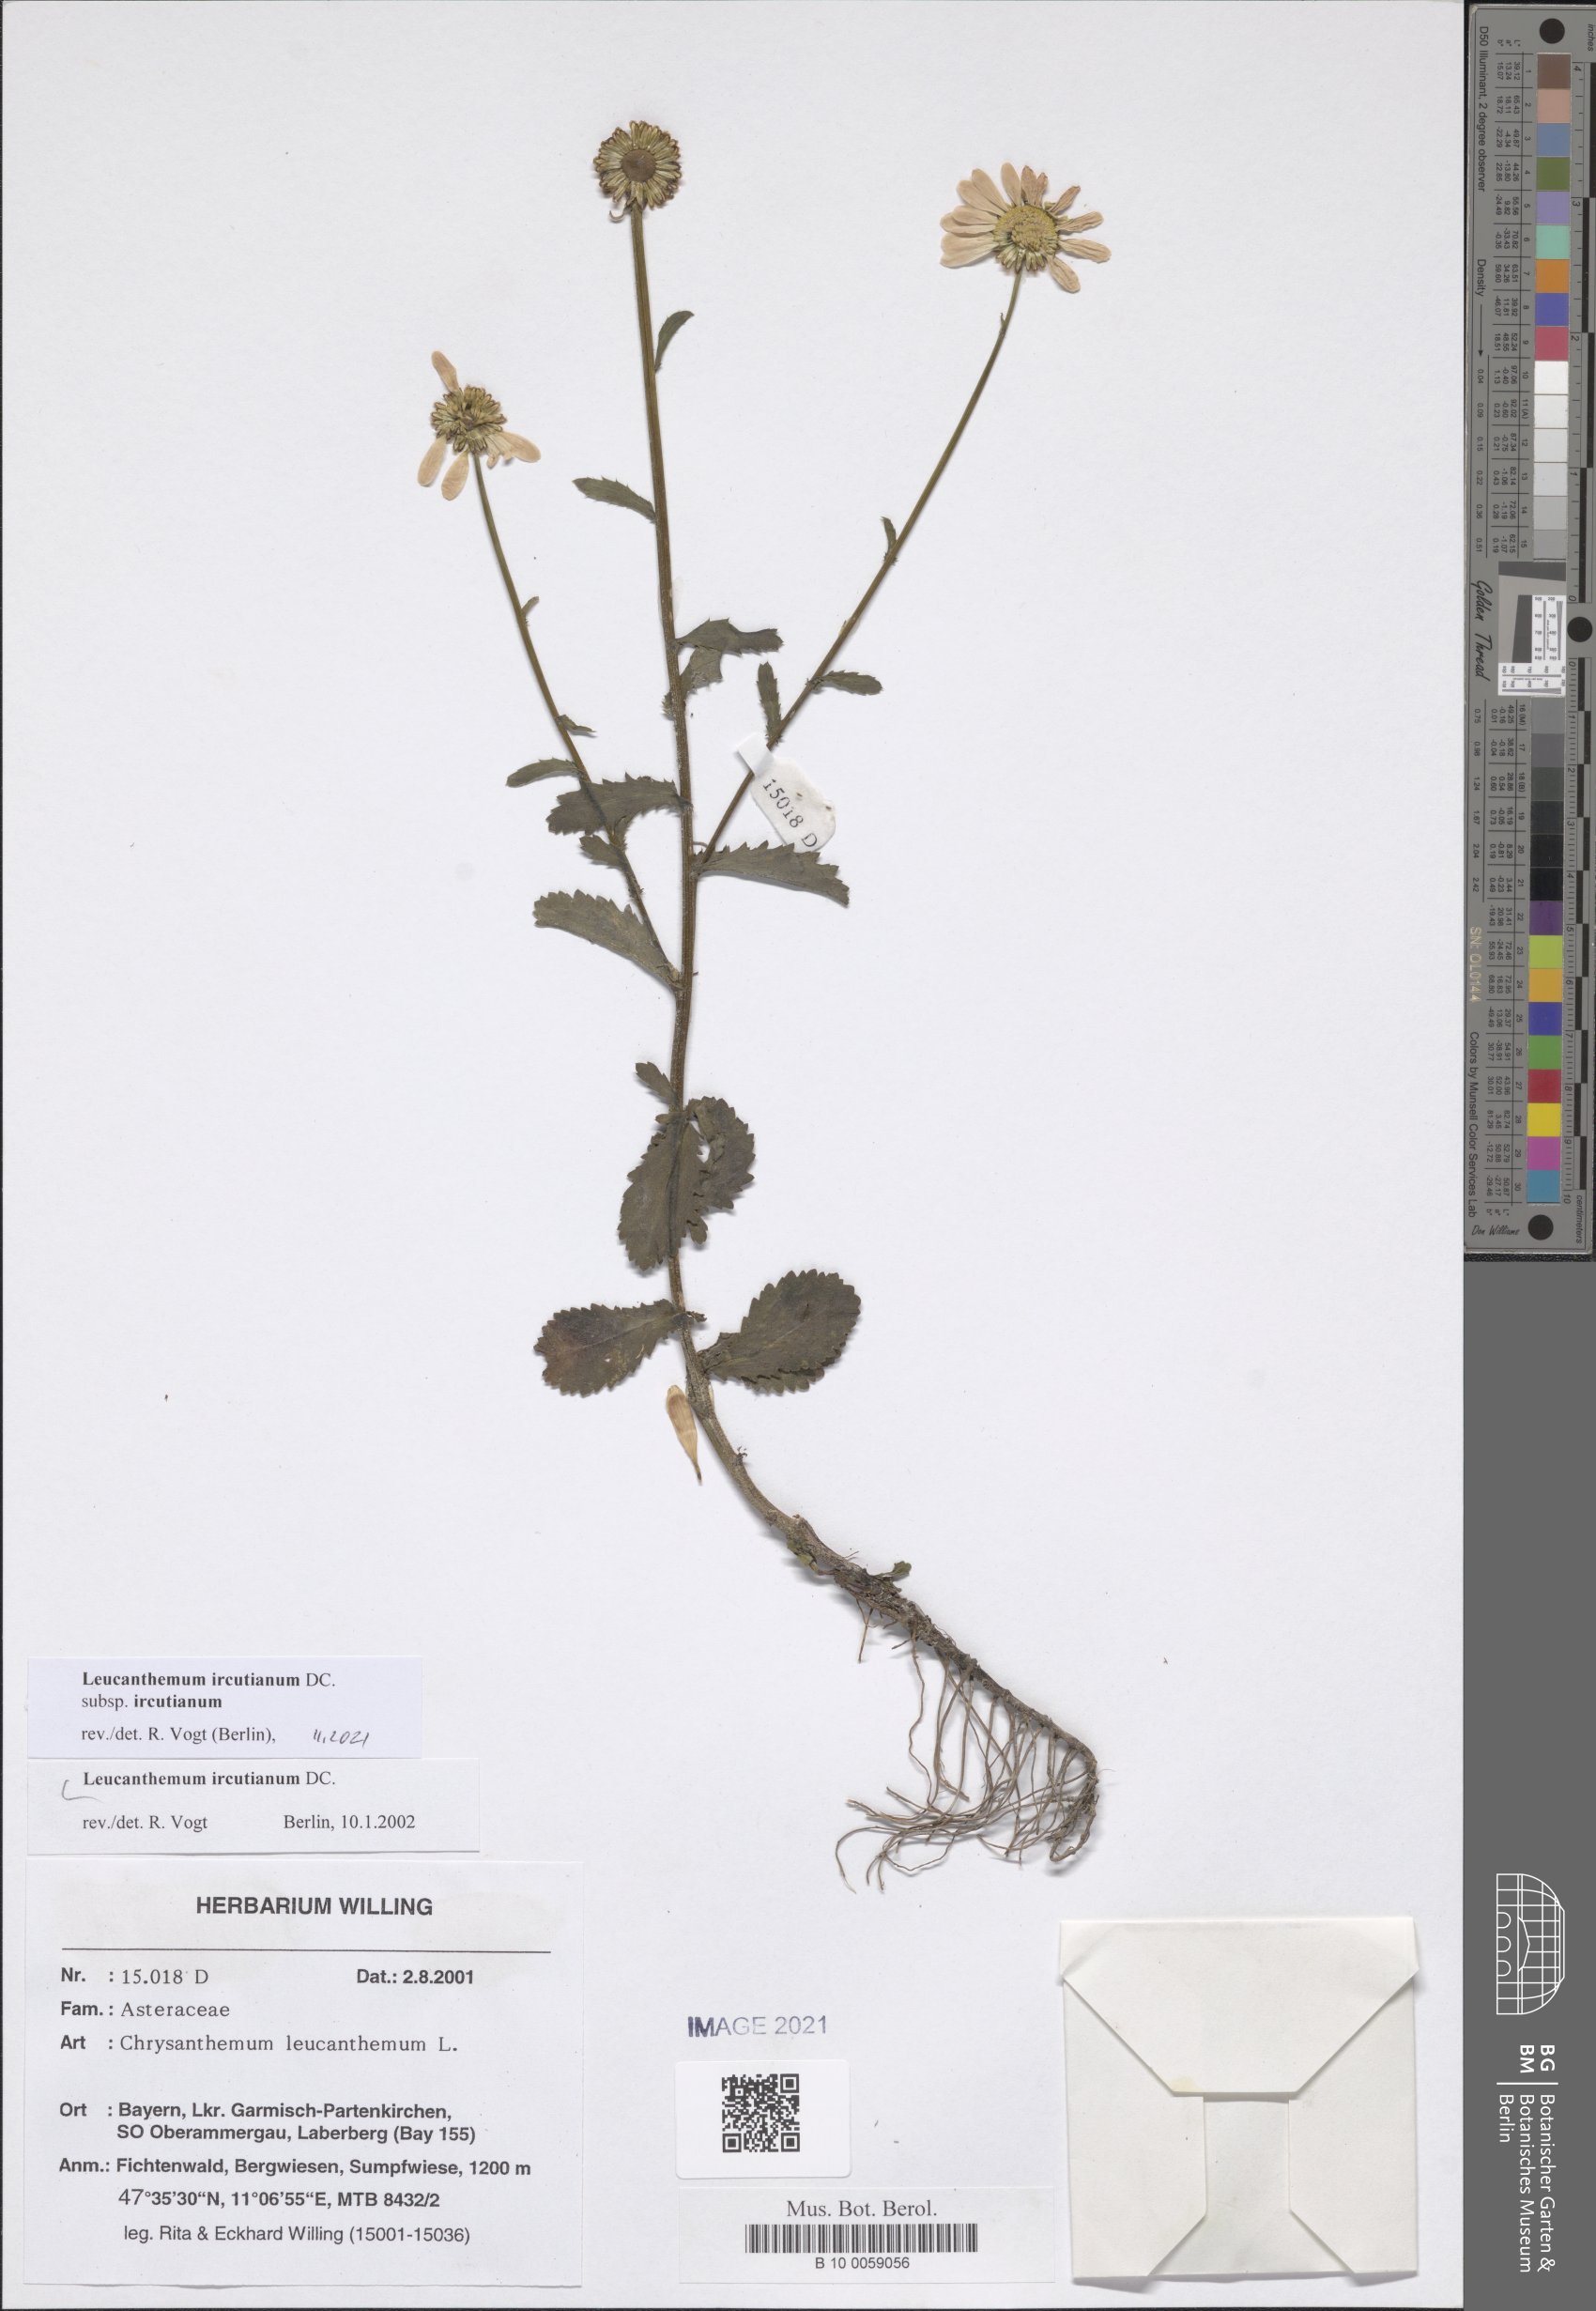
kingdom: Plantae
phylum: Tracheophyta
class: Magnoliopsida
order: Asterales
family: Asteraceae
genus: Leucanthemum
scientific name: Leucanthemum ircutianum
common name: Daisy
